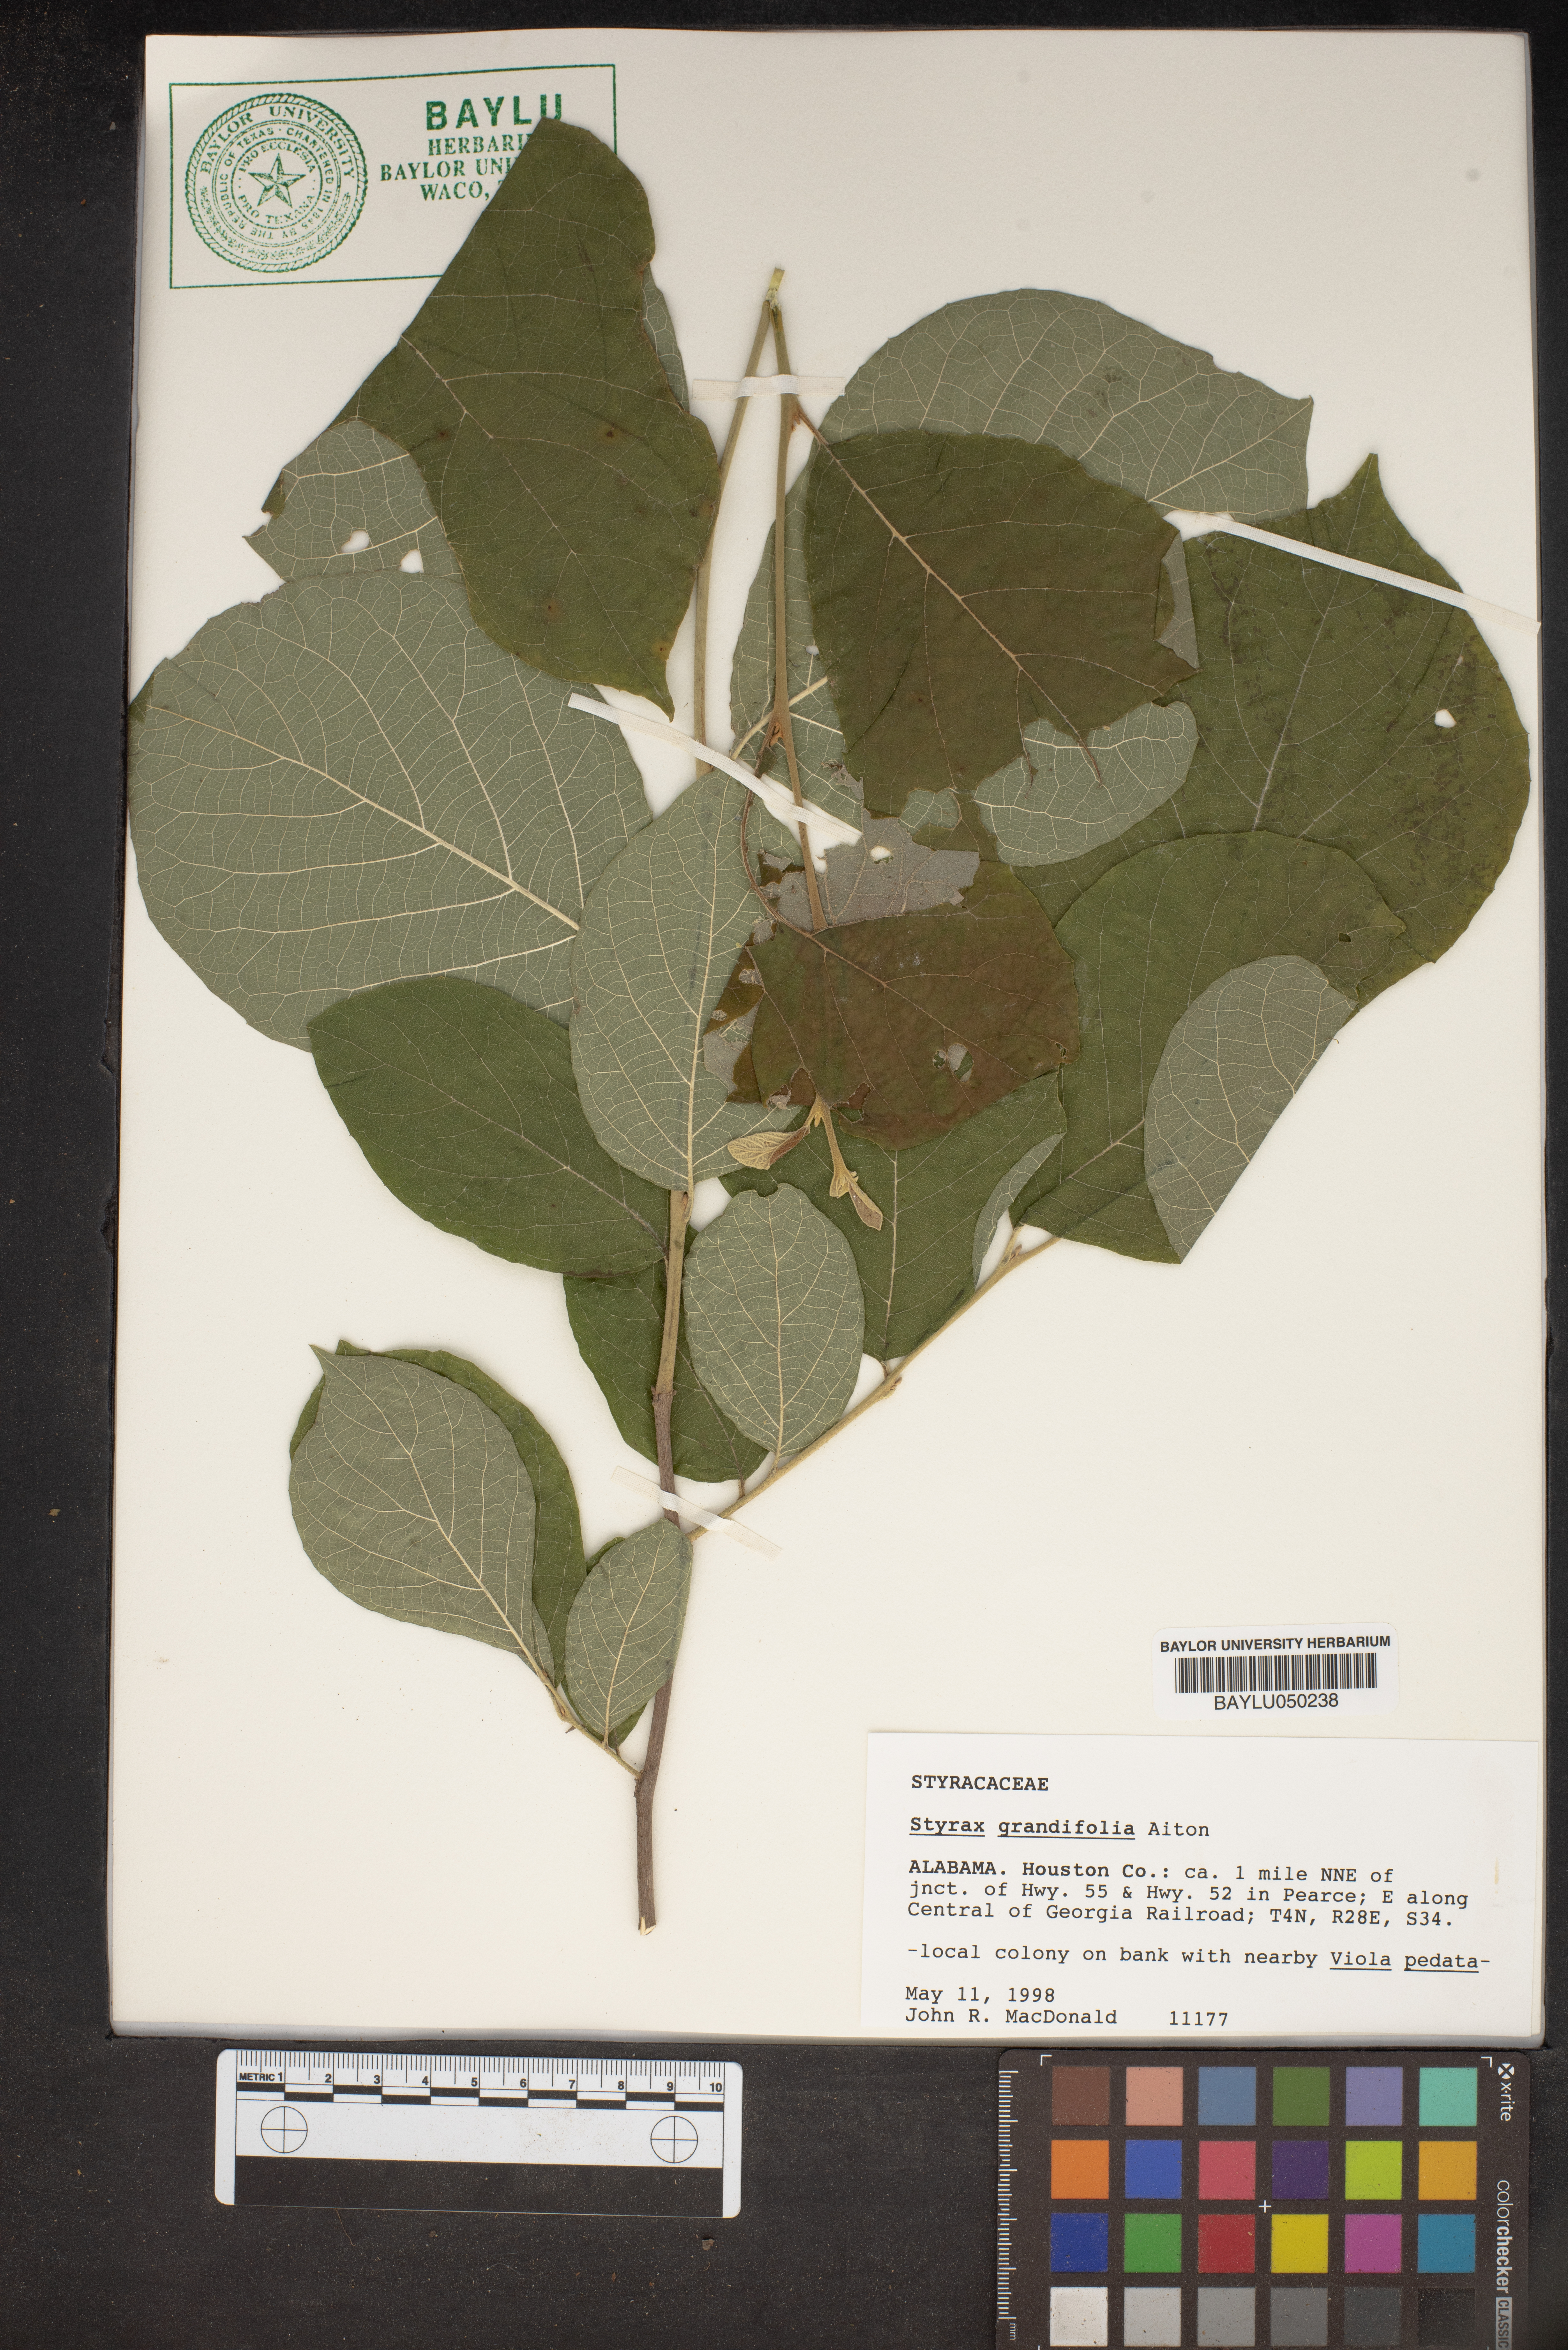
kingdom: Plantae
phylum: Tracheophyta
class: Magnoliopsida
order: Ericales
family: Styracaceae
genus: Styrax
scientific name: Styrax grandifolius
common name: Big-leaf snowbell
